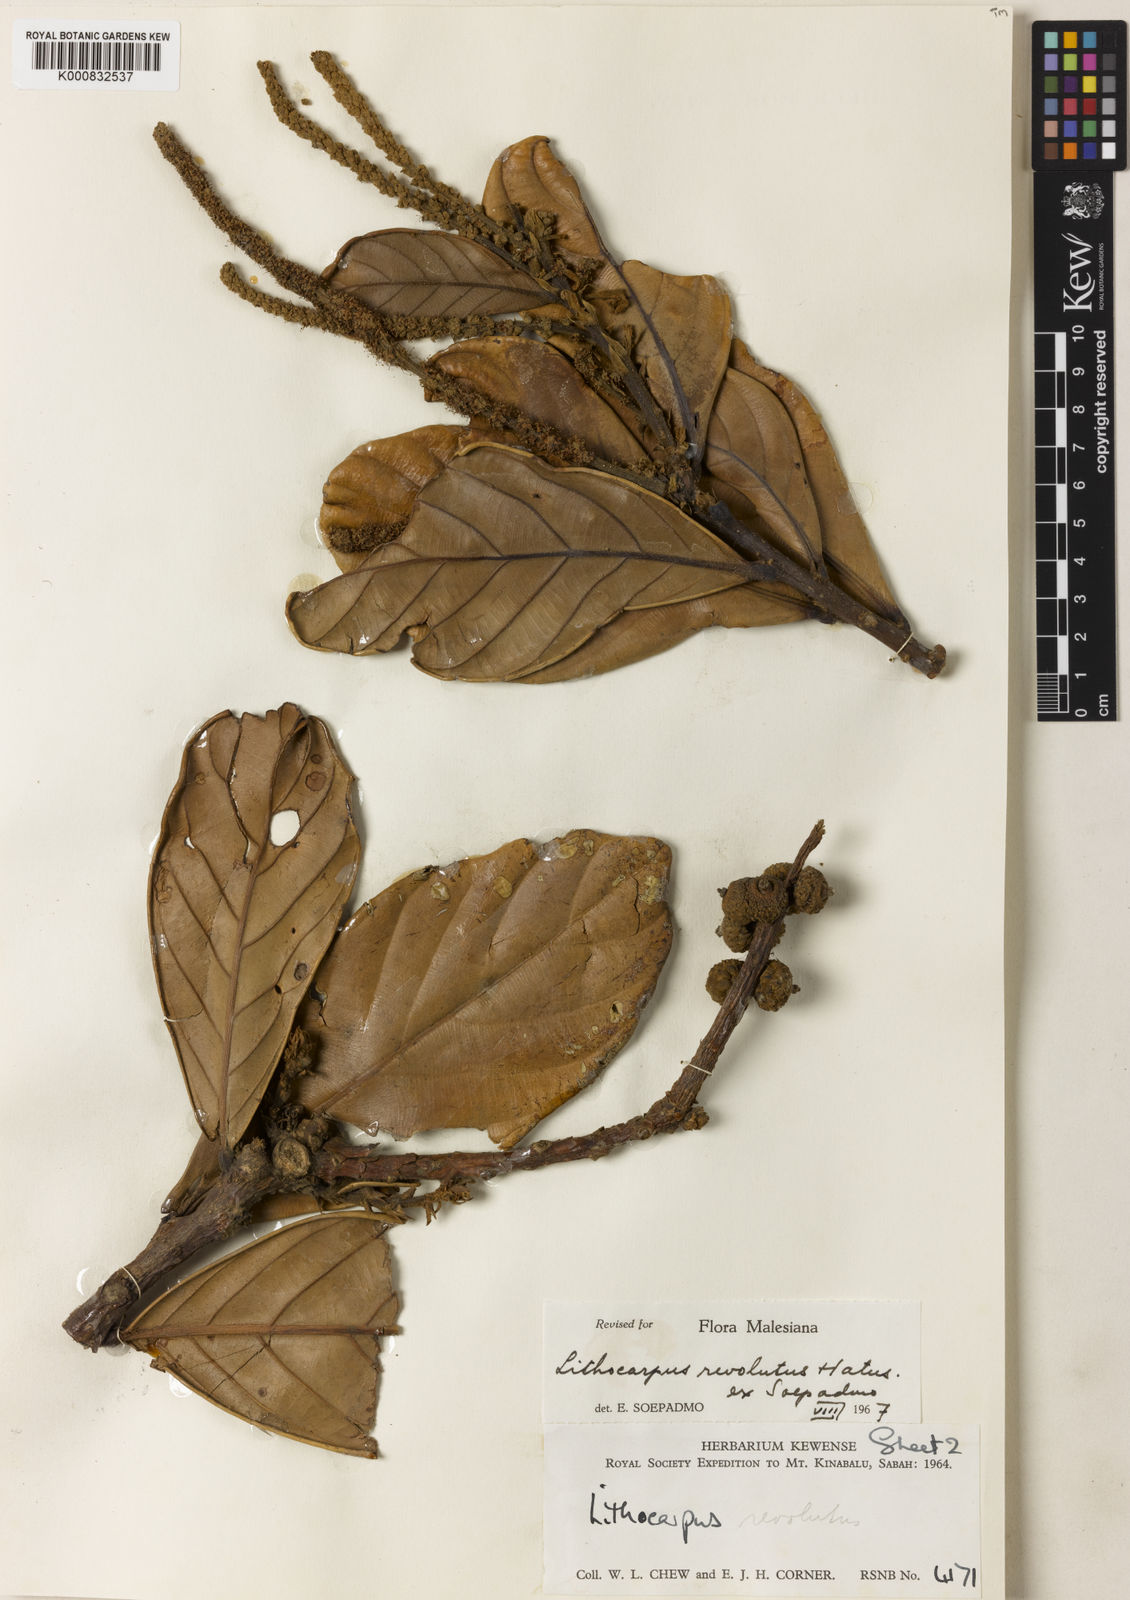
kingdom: Plantae
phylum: Tracheophyta
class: Magnoliopsida
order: Fagales
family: Fagaceae
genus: Lithocarpus
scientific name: Lithocarpus revolutus
